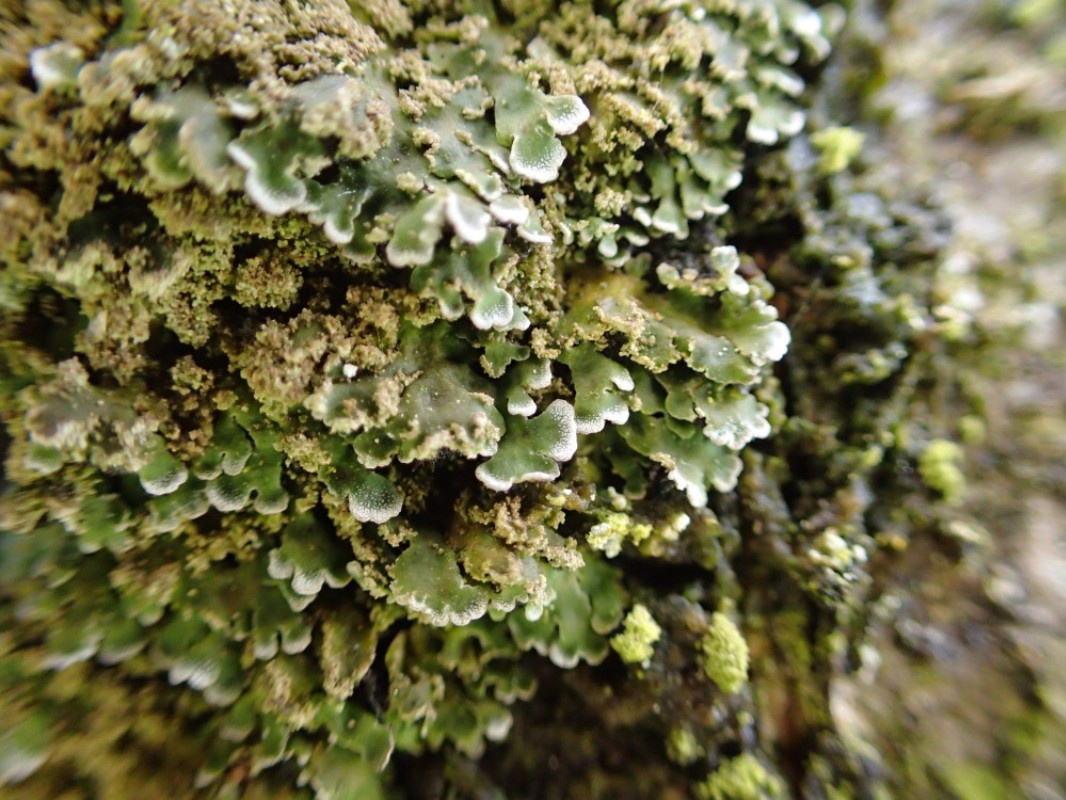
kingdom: Fungi
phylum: Ascomycota
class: Lecanoromycetes
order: Caliciales
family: Physciaceae
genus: Physconia
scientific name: Physconia perisidiosa
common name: liden dugrosetlav
